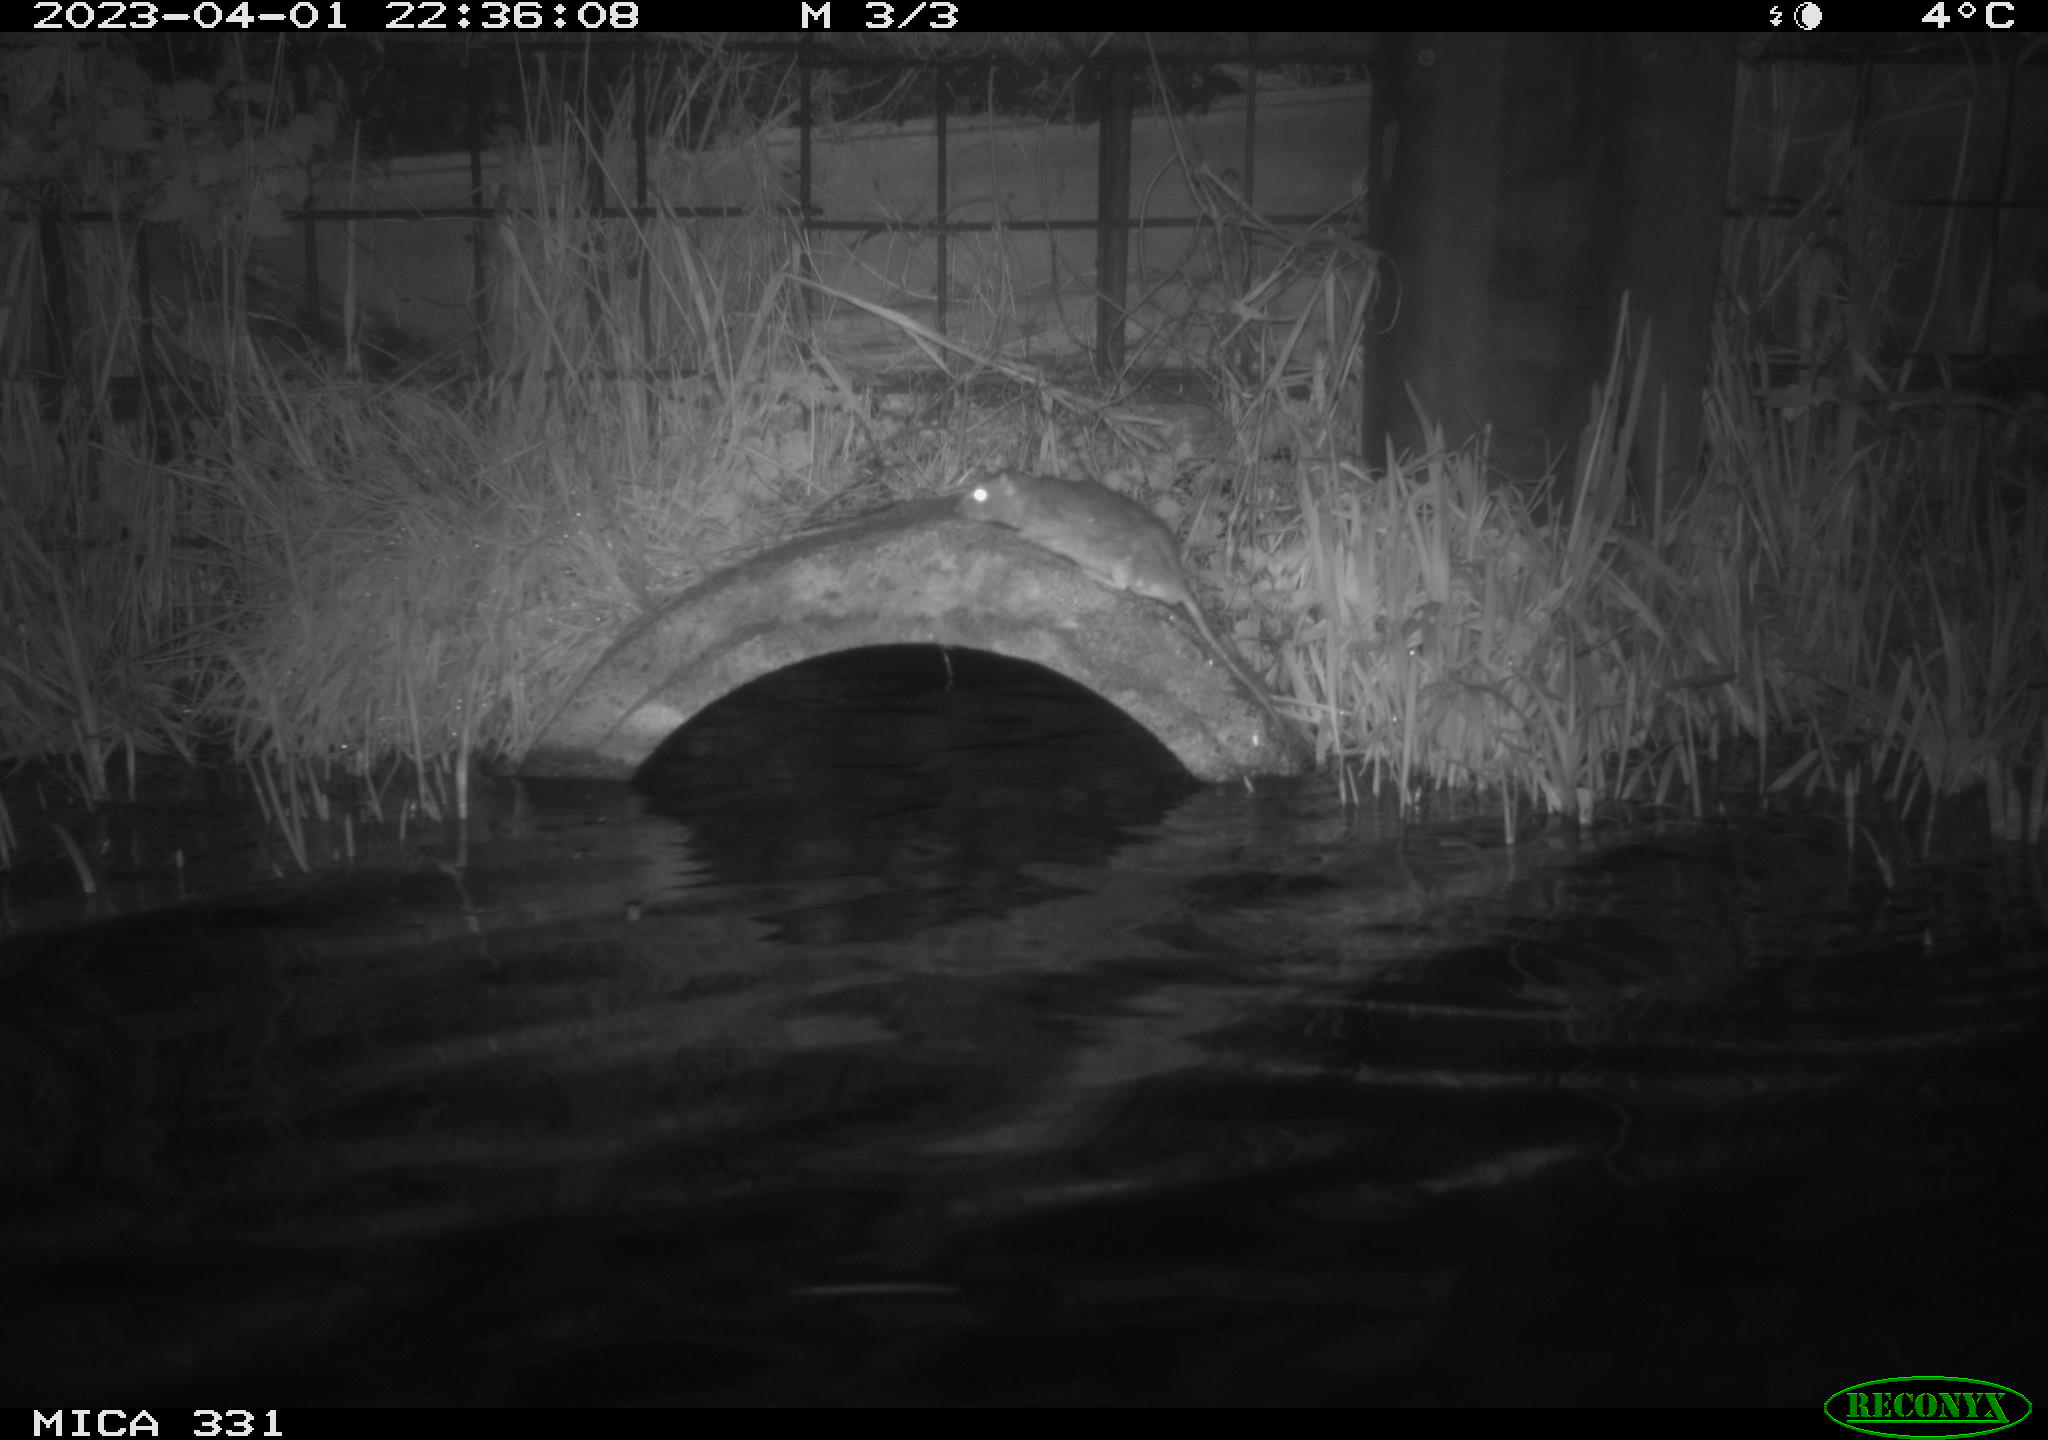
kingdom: Animalia
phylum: Chordata
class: Mammalia
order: Rodentia
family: Muridae
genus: Rattus
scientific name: Rattus norvegicus
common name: Brown rat
